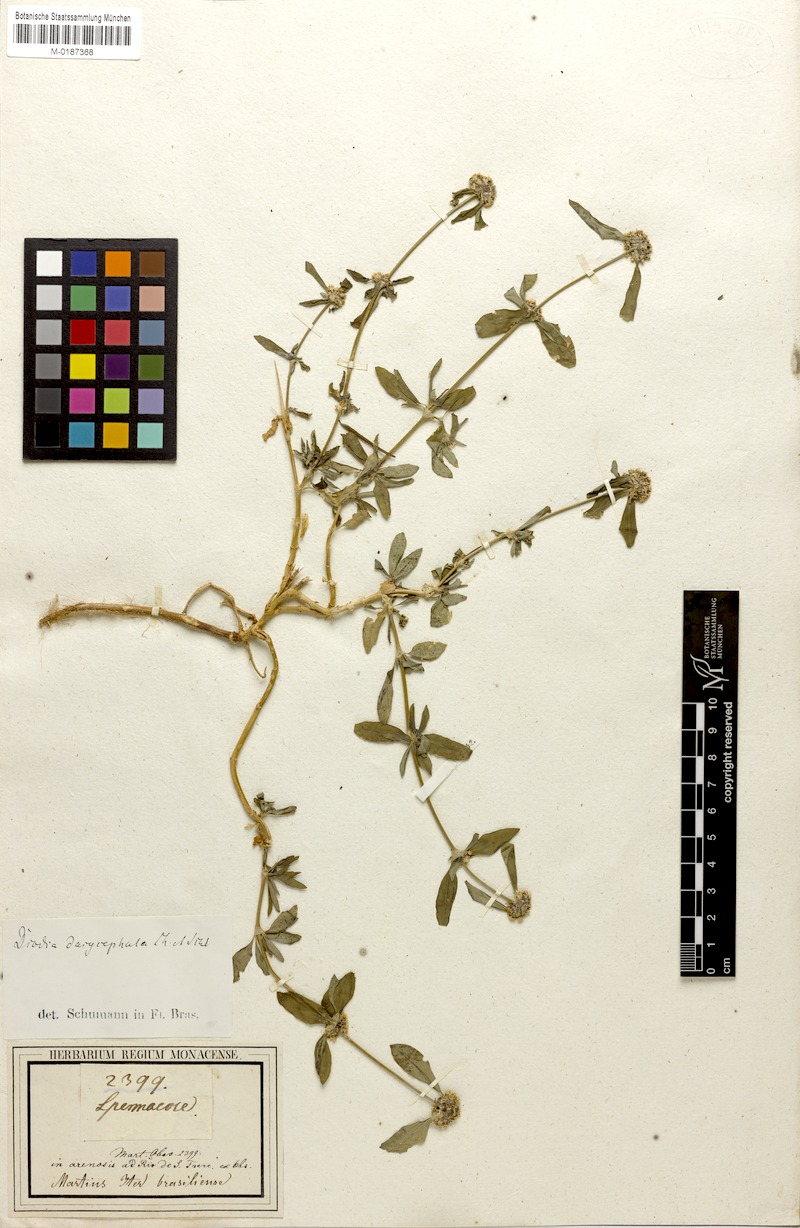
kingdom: Plantae
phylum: Tracheophyta
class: Magnoliopsida
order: Gentianales
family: Rubiaceae
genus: Spermacoce
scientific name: Spermacoce dasycephala
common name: False buttonweed
